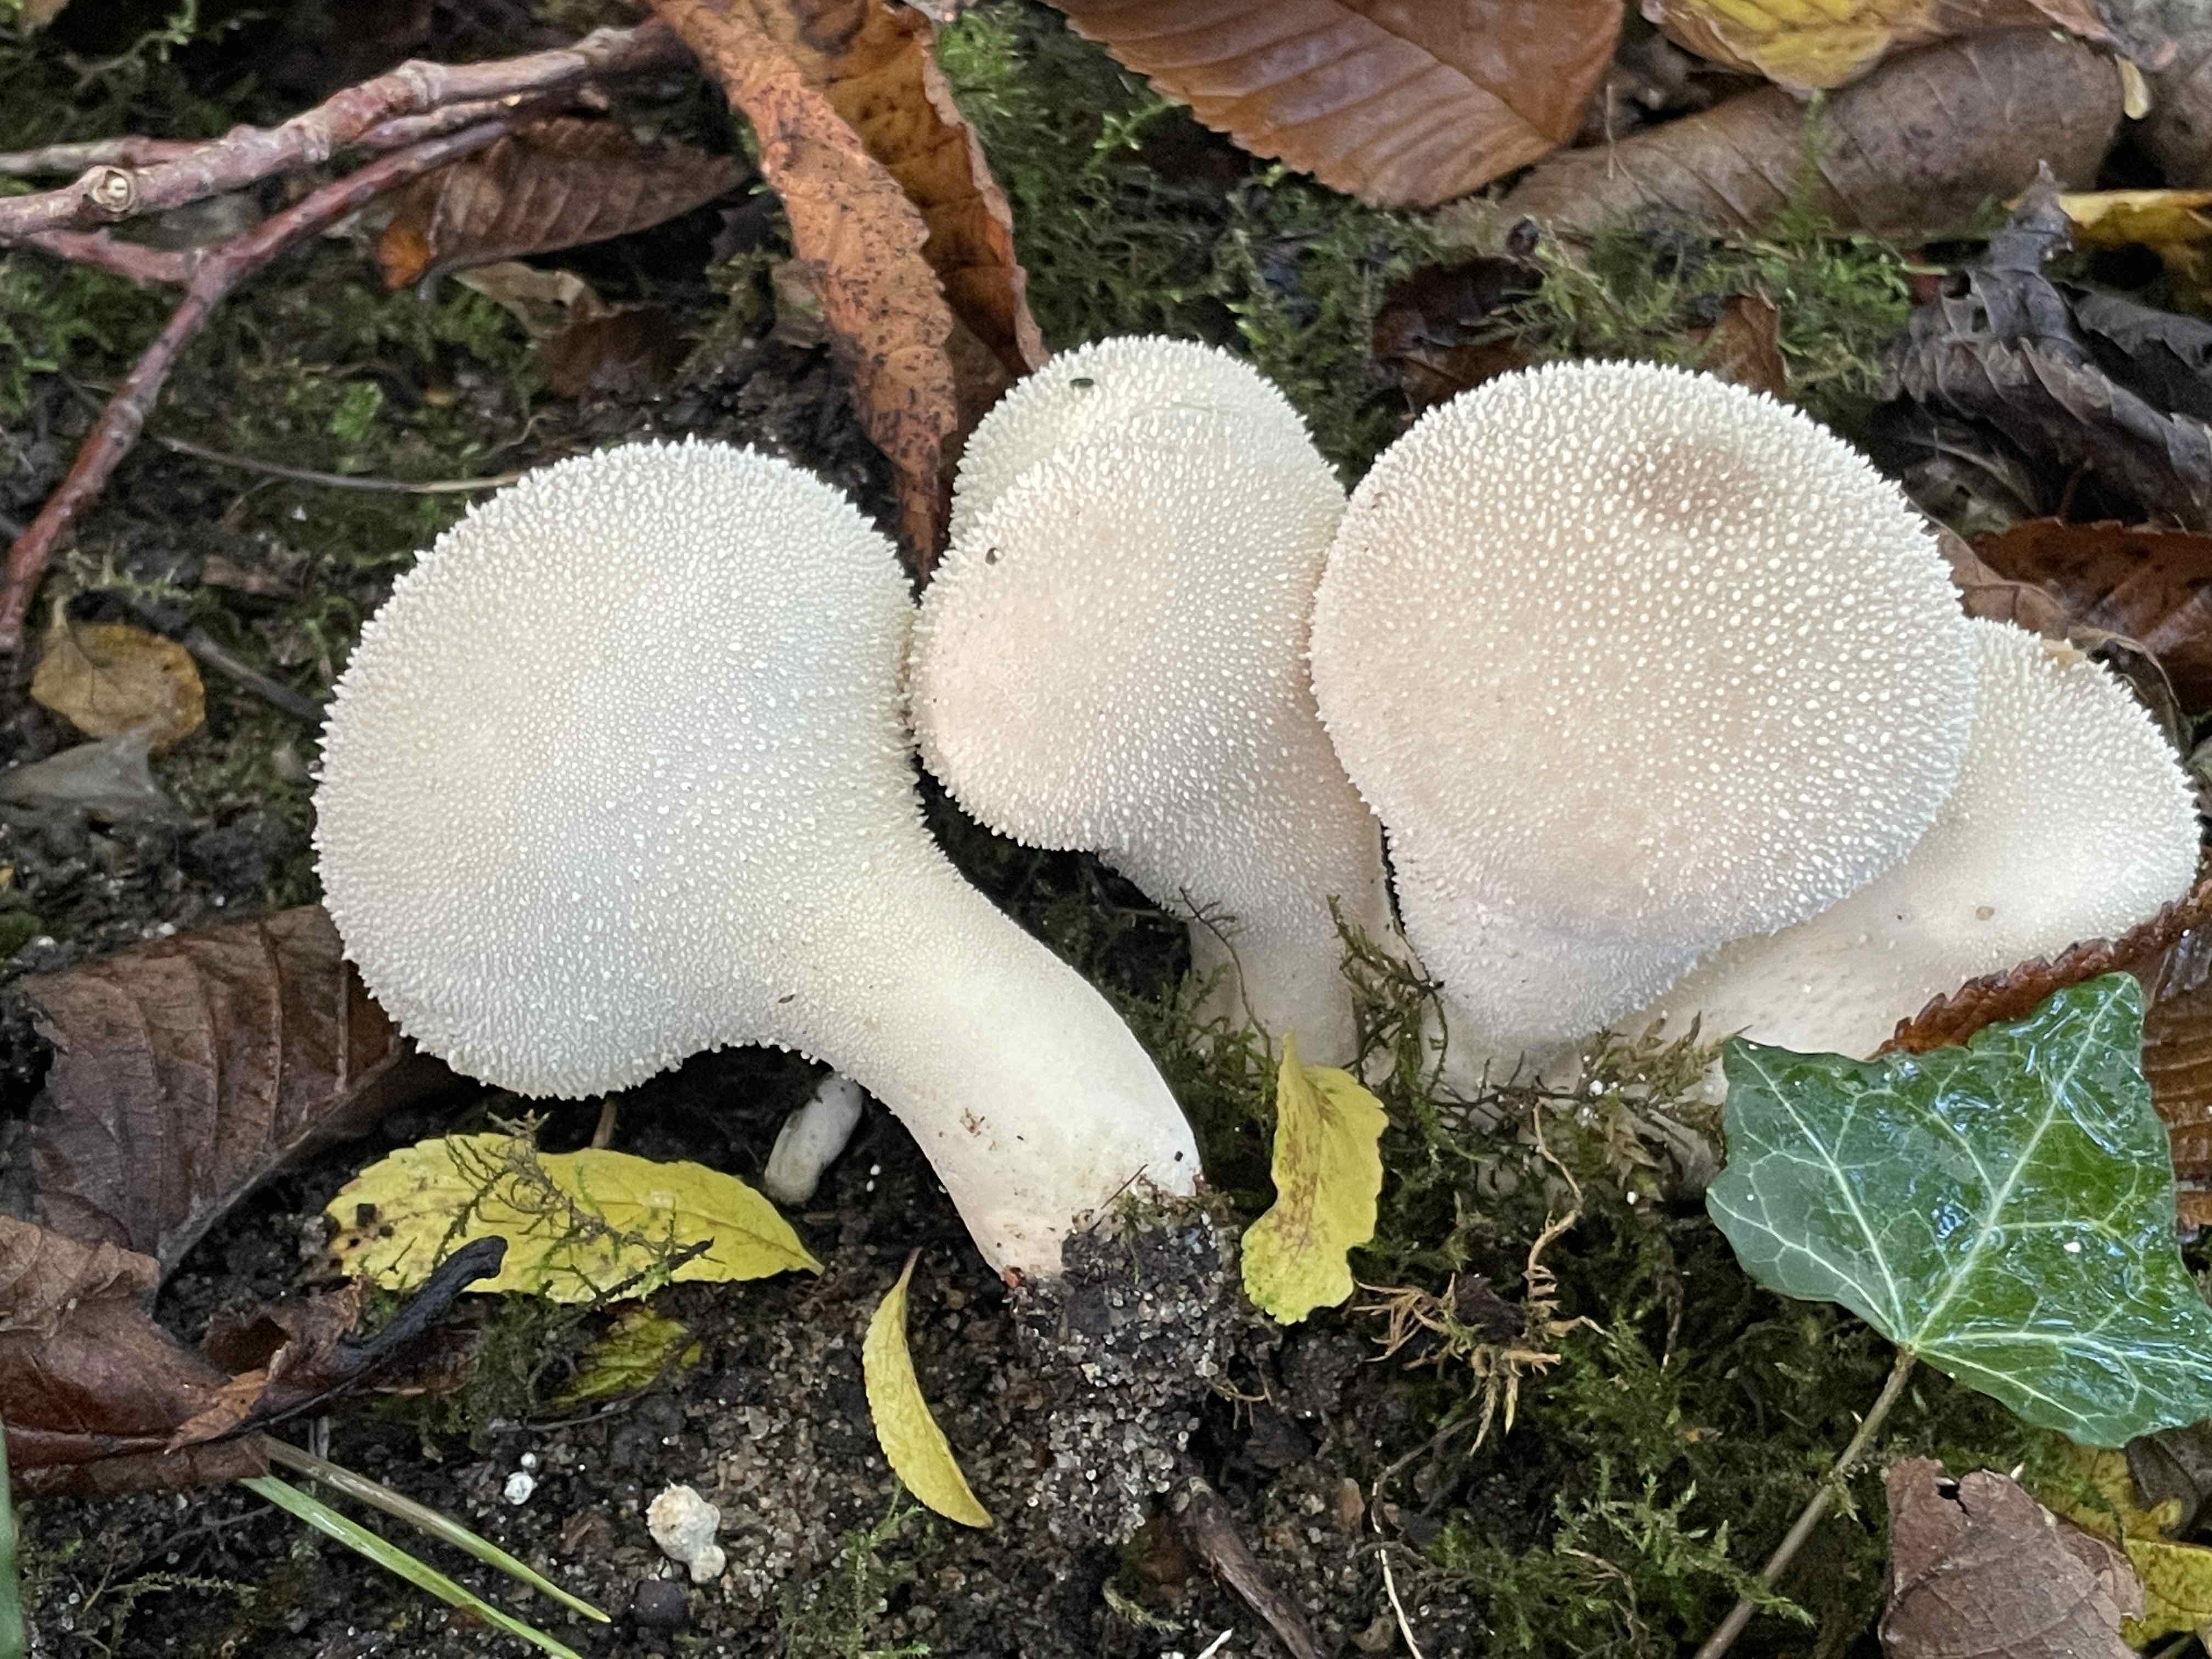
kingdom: Fungi
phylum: Basidiomycota
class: Agaricomycetes
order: Agaricales
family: Lycoperdaceae
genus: Lycoperdon
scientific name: Lycoperdon perlatum
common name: krystal-støvbold
